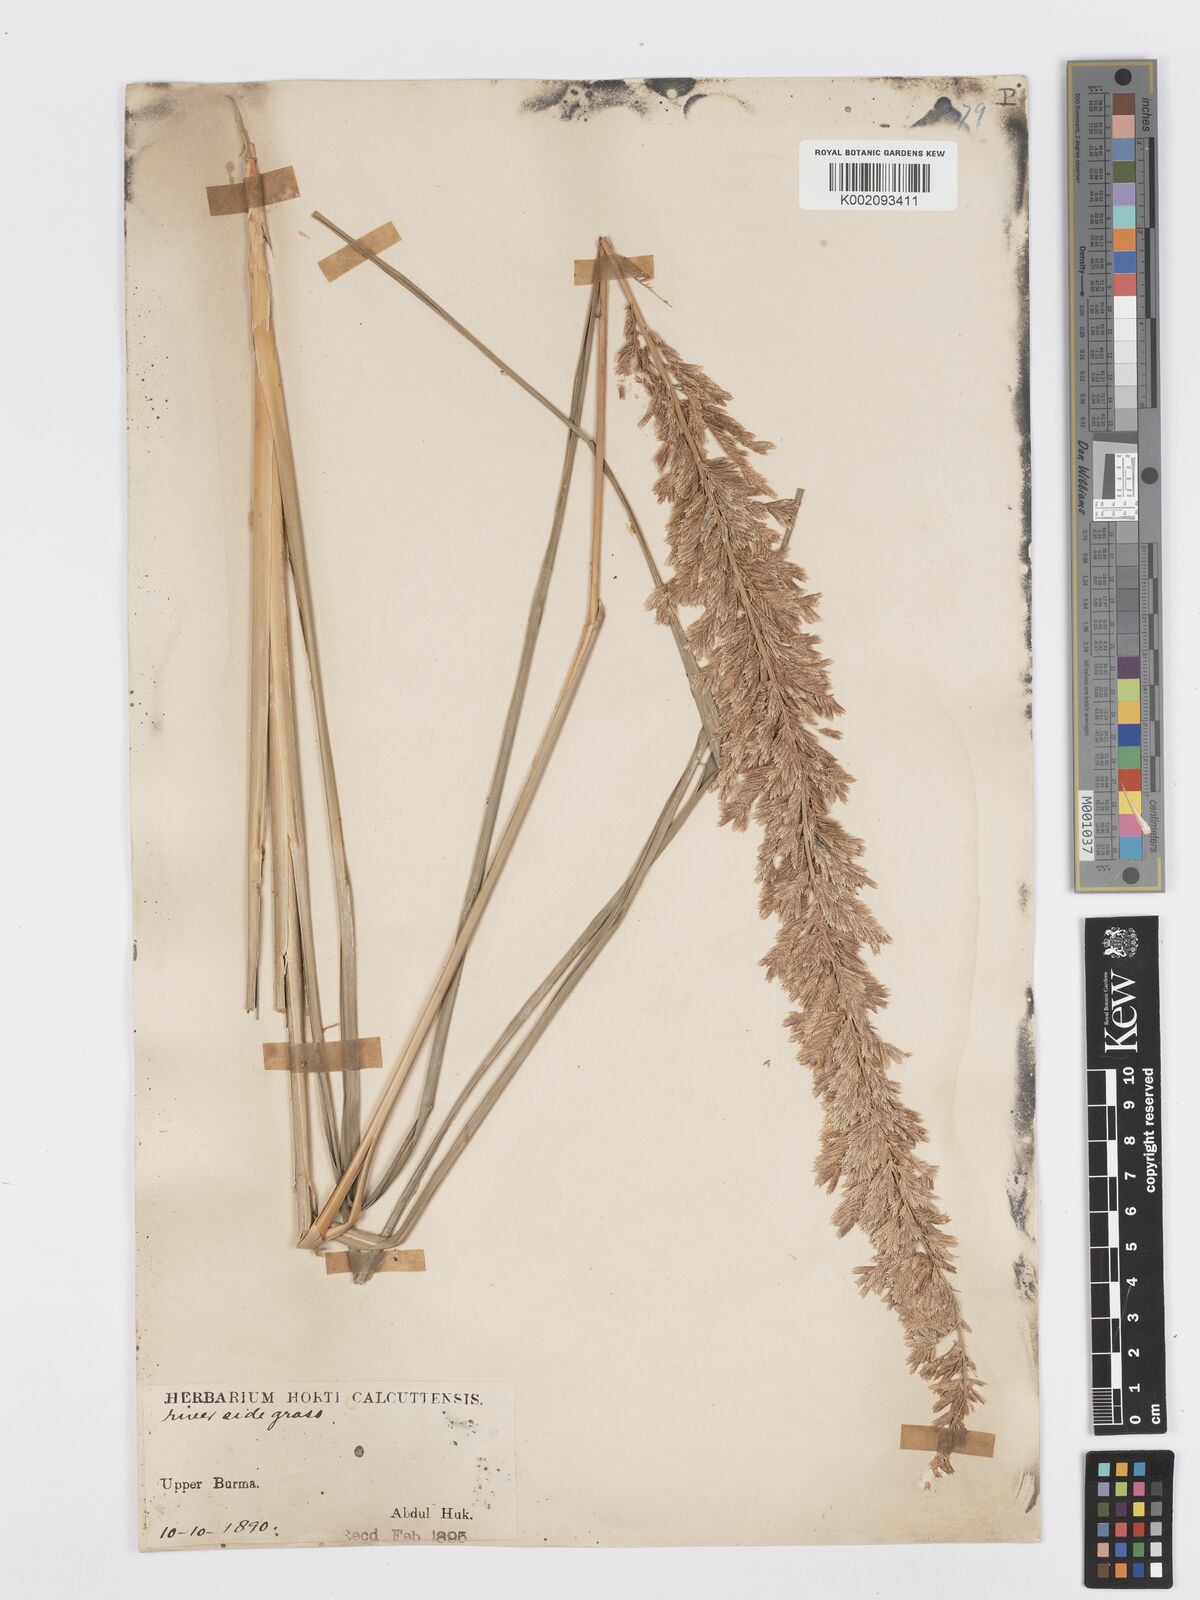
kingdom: Plantae
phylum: Tracheophyta
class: Liliopsida
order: Poales
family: Poaceae
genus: Desmostachya
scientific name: Desmostachya bipinnata
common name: Crowfoot grass
